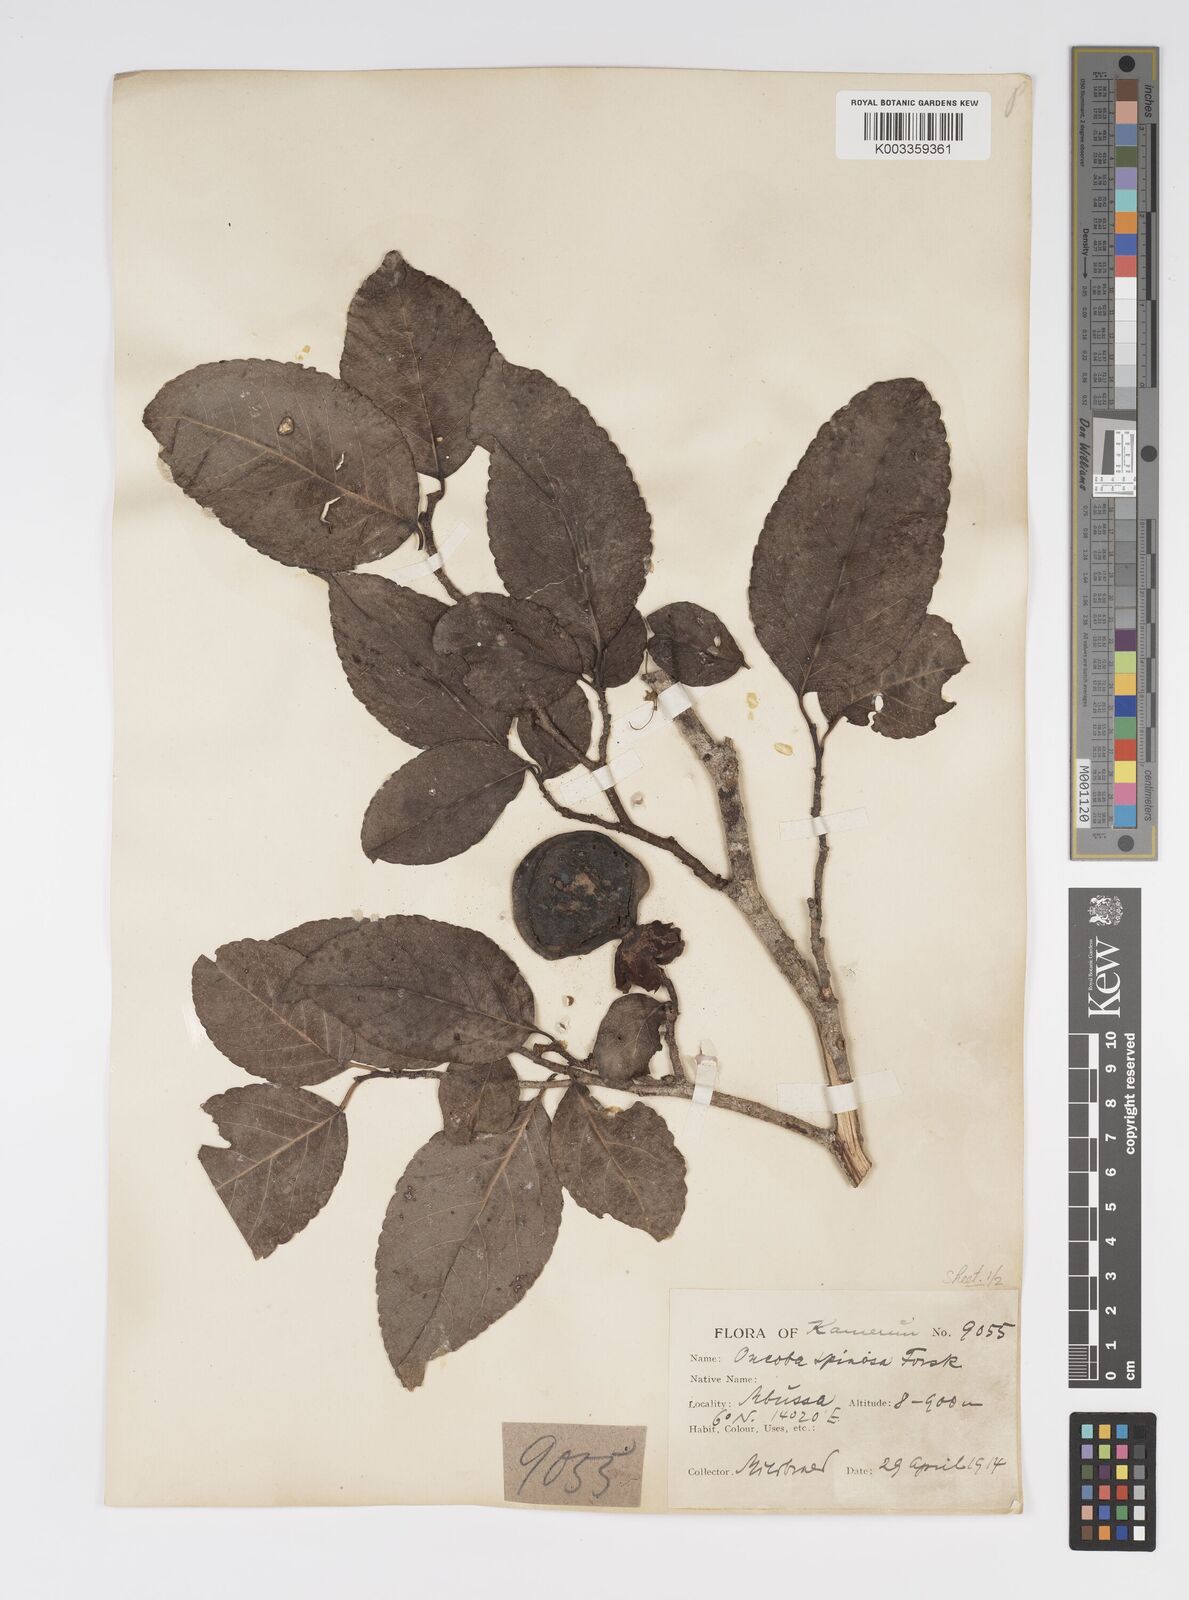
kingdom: Plantae
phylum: Tracheophyta
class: Magnoliopsida
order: Malpighiales
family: Salicaceae
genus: Oncoba
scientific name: Oncoba spinosa
